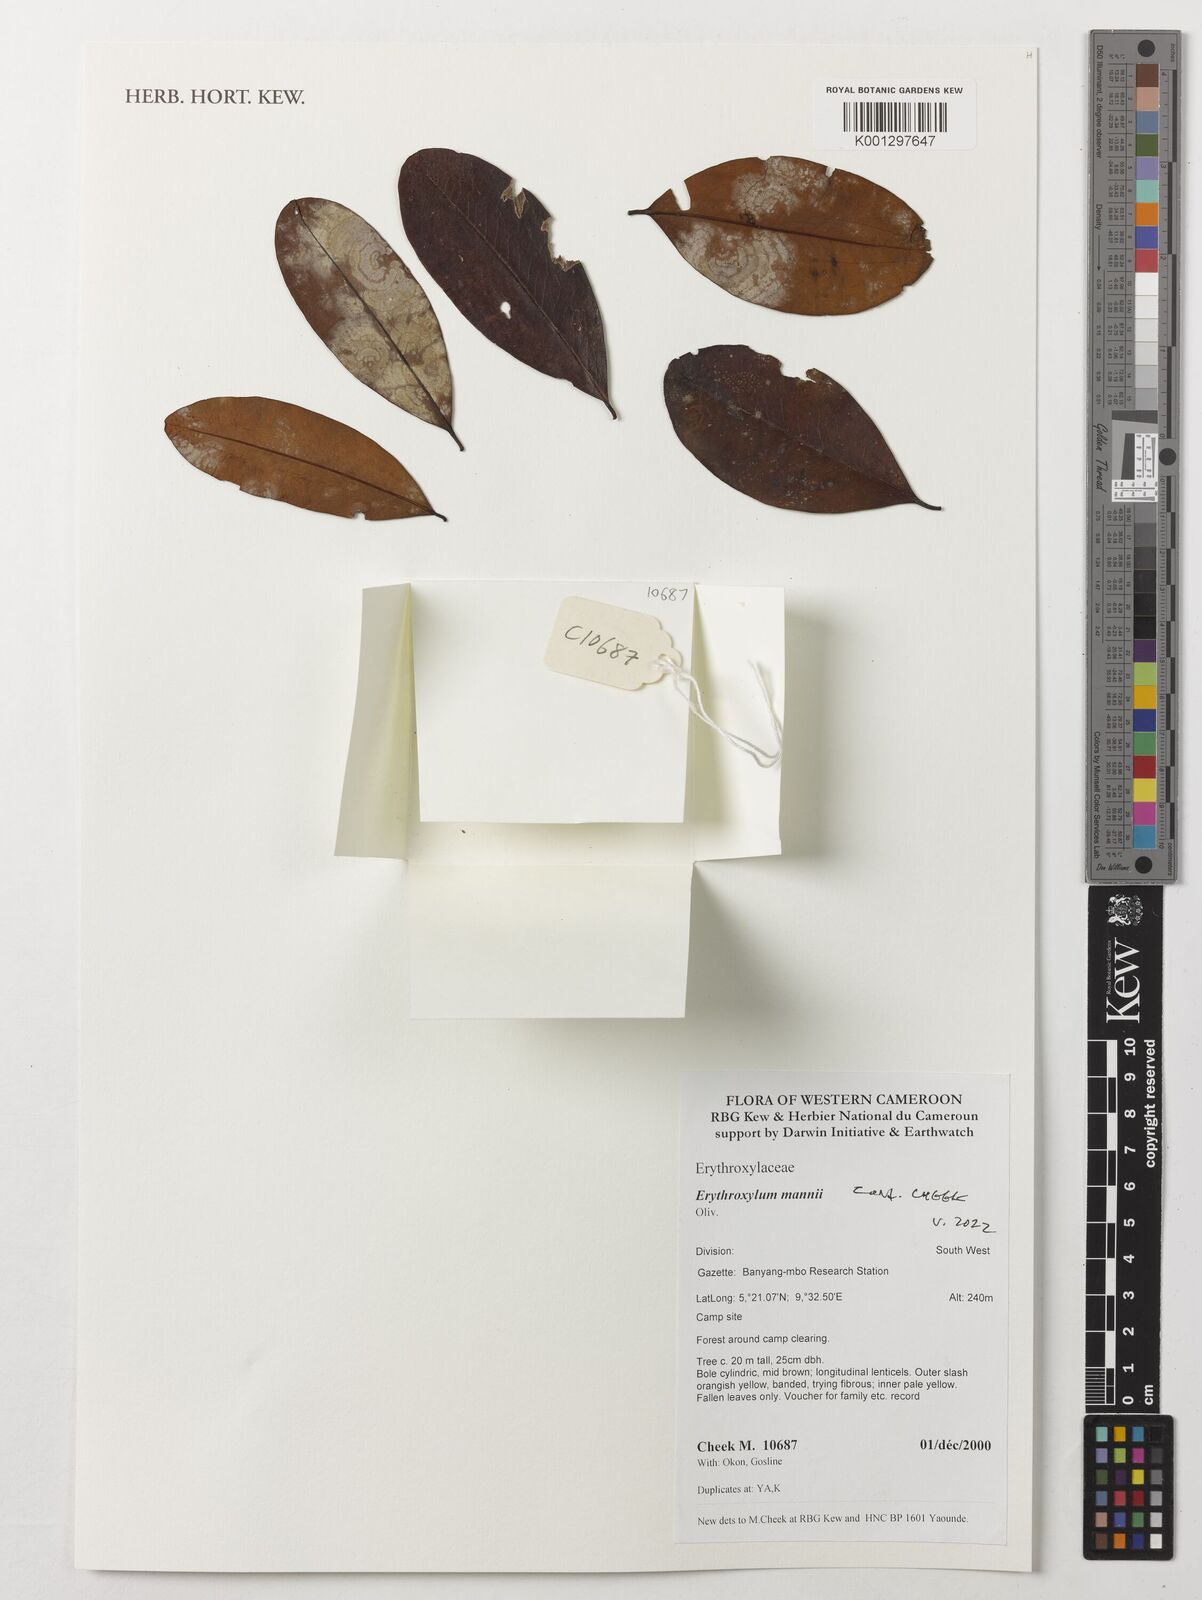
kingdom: Plantae
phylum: Tracheophyta
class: Magnoliopsida
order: Malpighiales
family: Erythroxylaceae
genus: Erythroxylum
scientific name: Erythroxylum mannii
